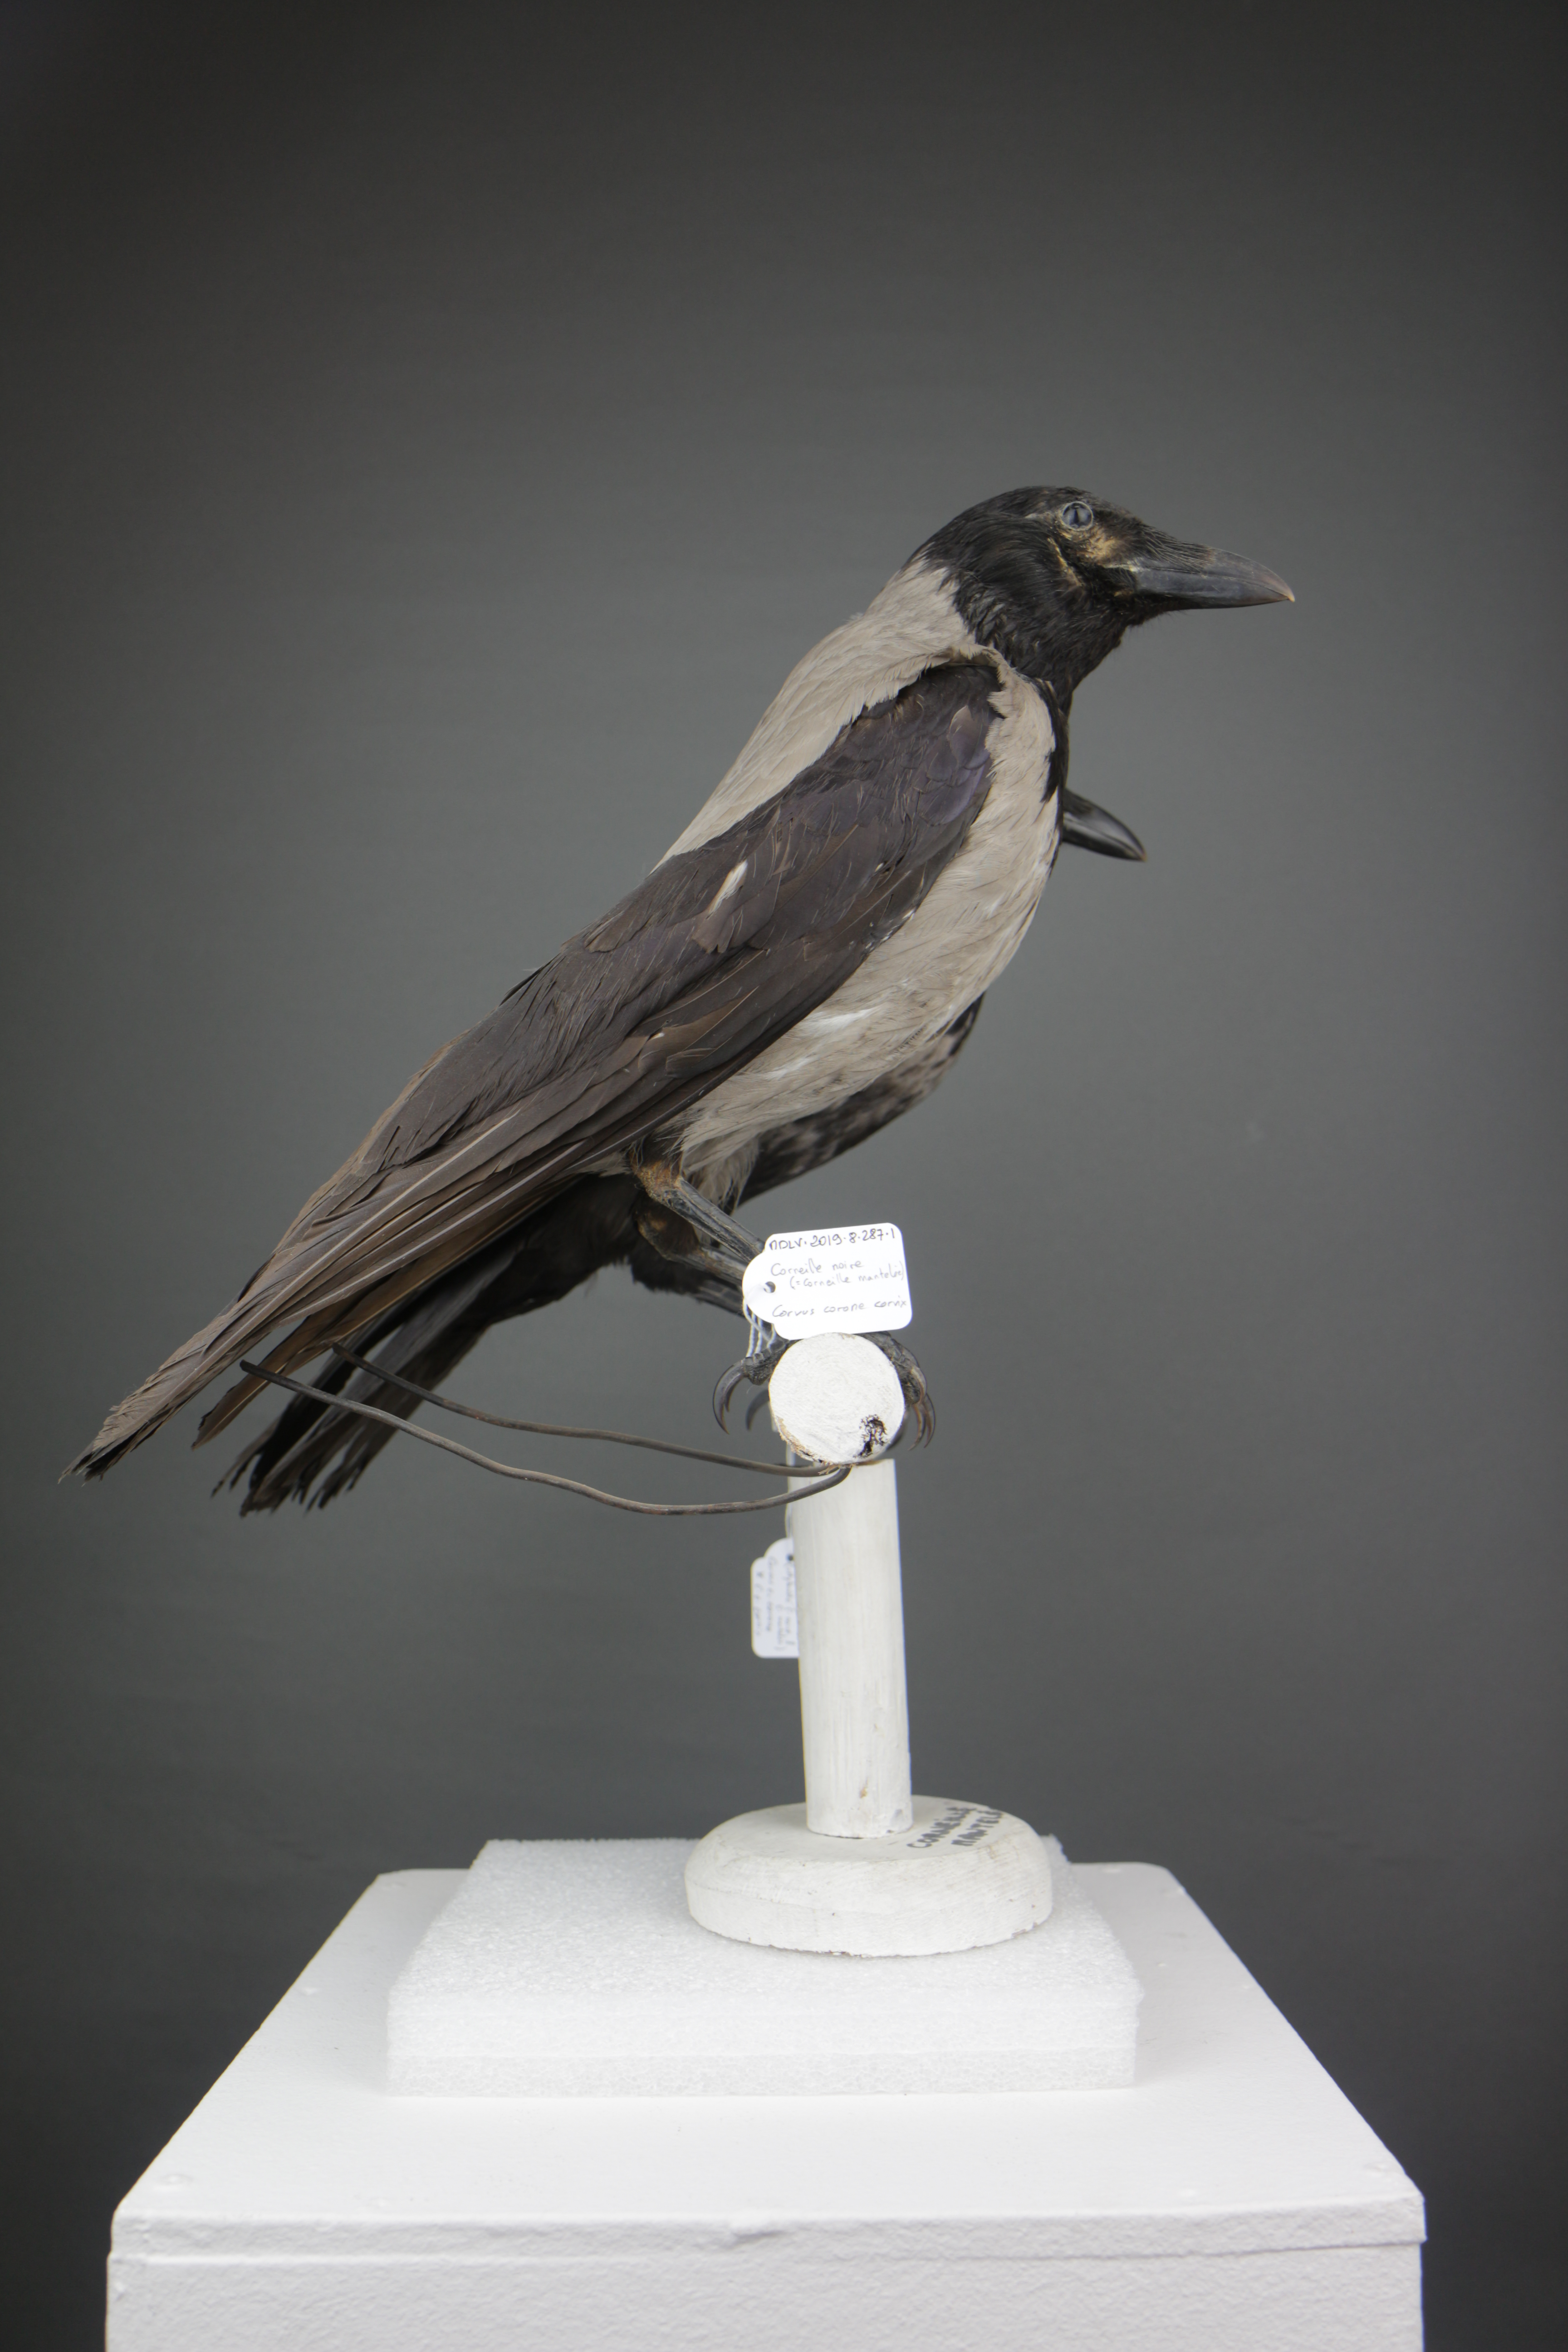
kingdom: Animalia
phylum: Chordata
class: Aves
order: Passeriformes
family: Corvidae
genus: Corvus
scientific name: Corvus corone
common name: Carrion crow
